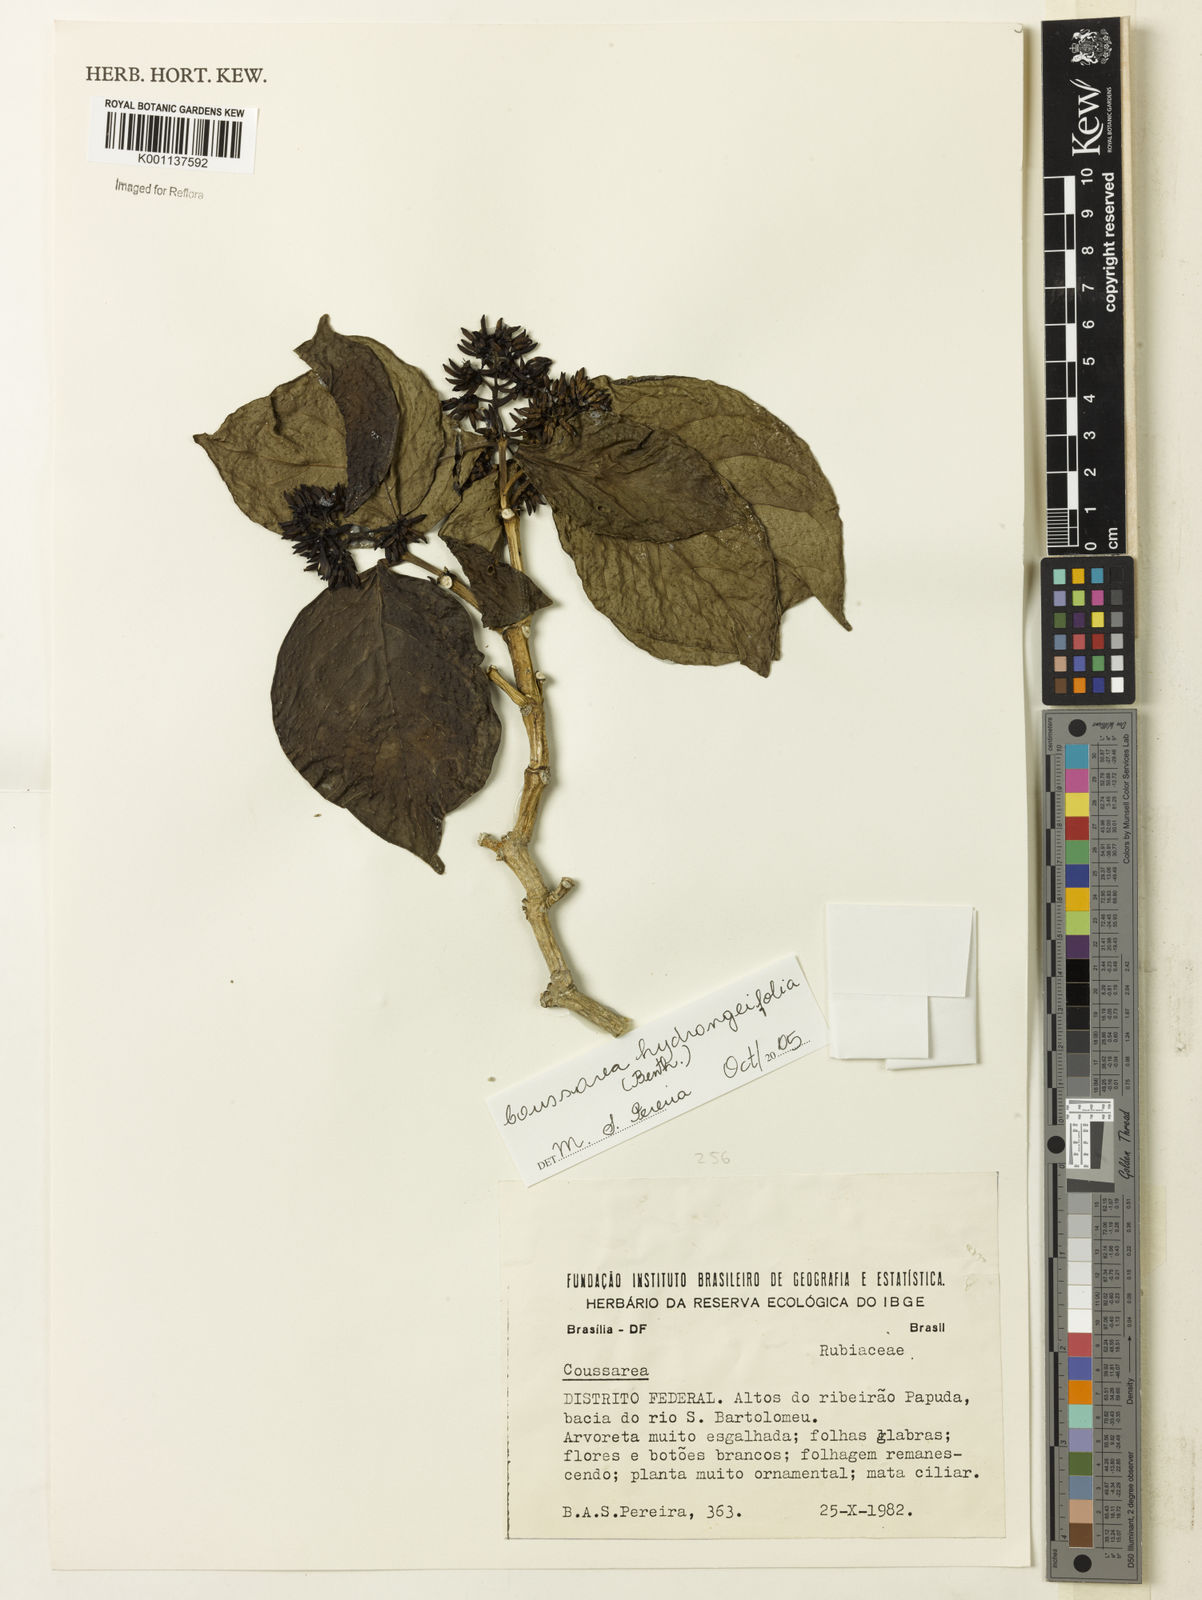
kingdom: Plantae
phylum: Tracheophyta
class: Magnoliopsida
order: Gentianales
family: Rubiaceae
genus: Coussarea
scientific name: Coussarea
